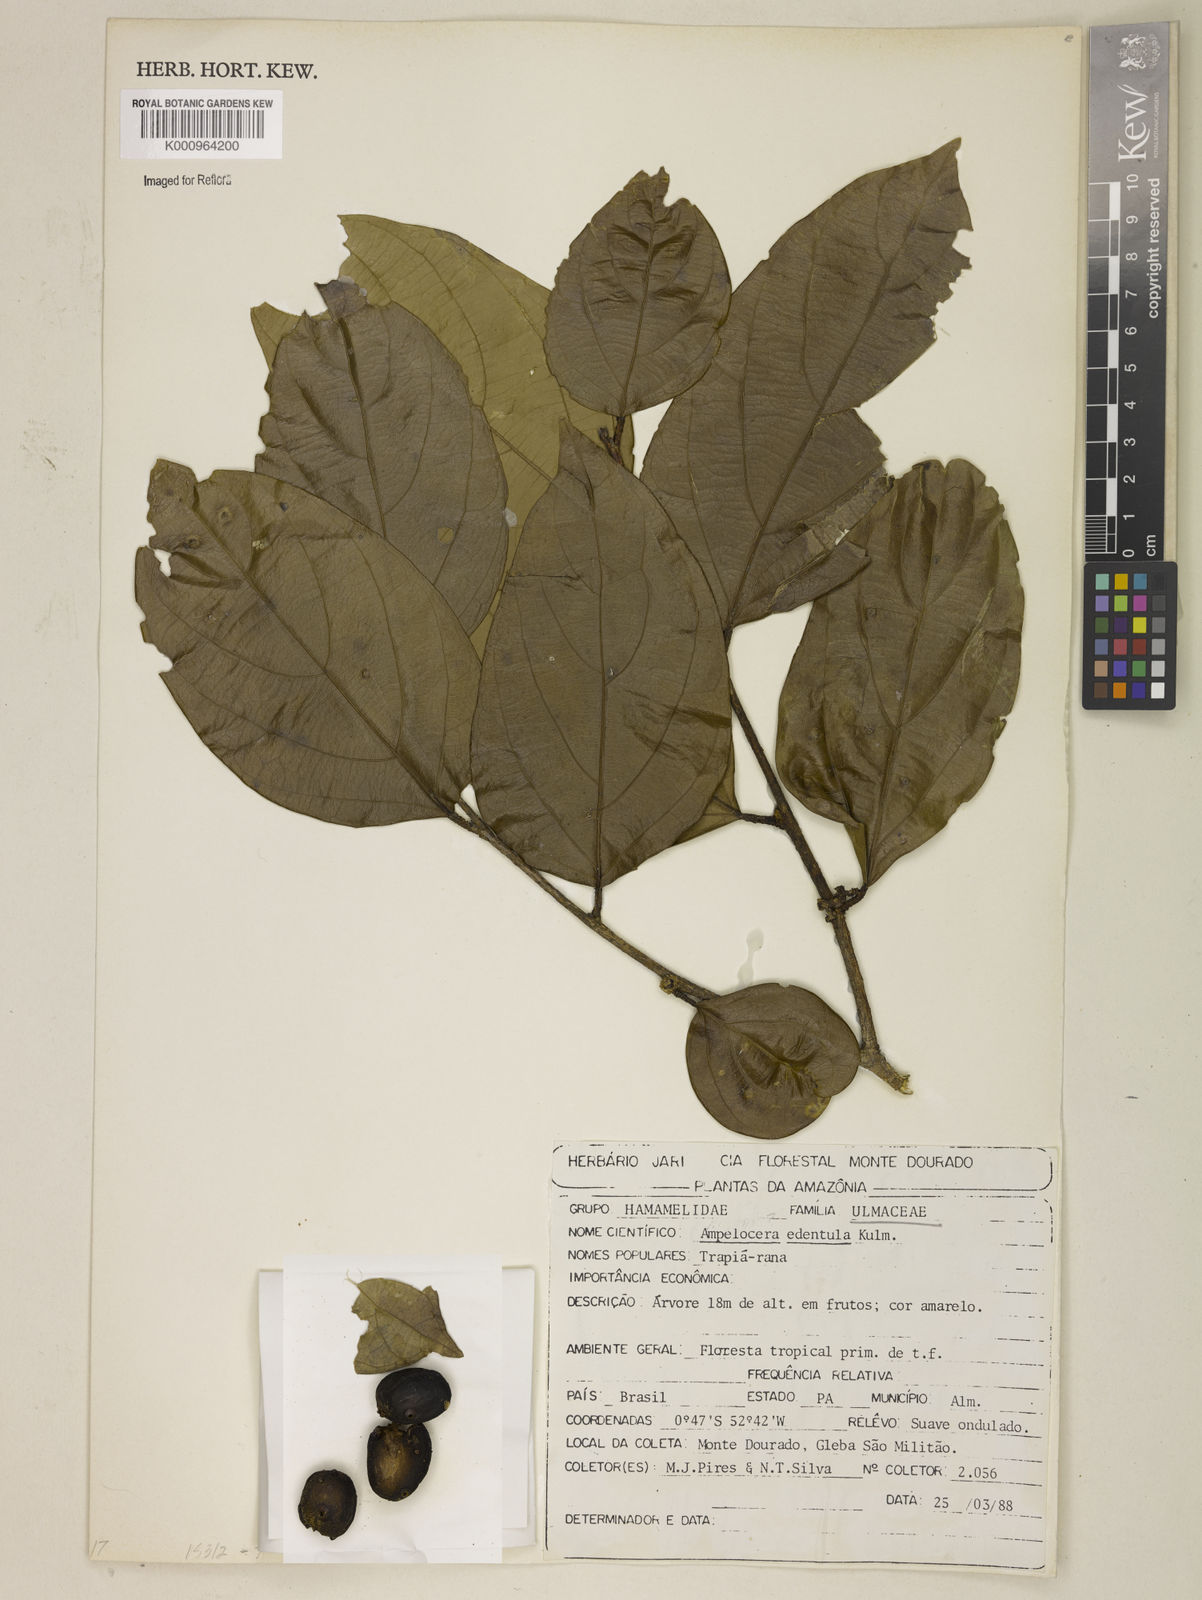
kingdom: Plantae
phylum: Tracheophyta
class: Magnoliopsida
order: Rosales
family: Cannabaceae
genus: Ampelocera
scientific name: Ampelocera edentula
